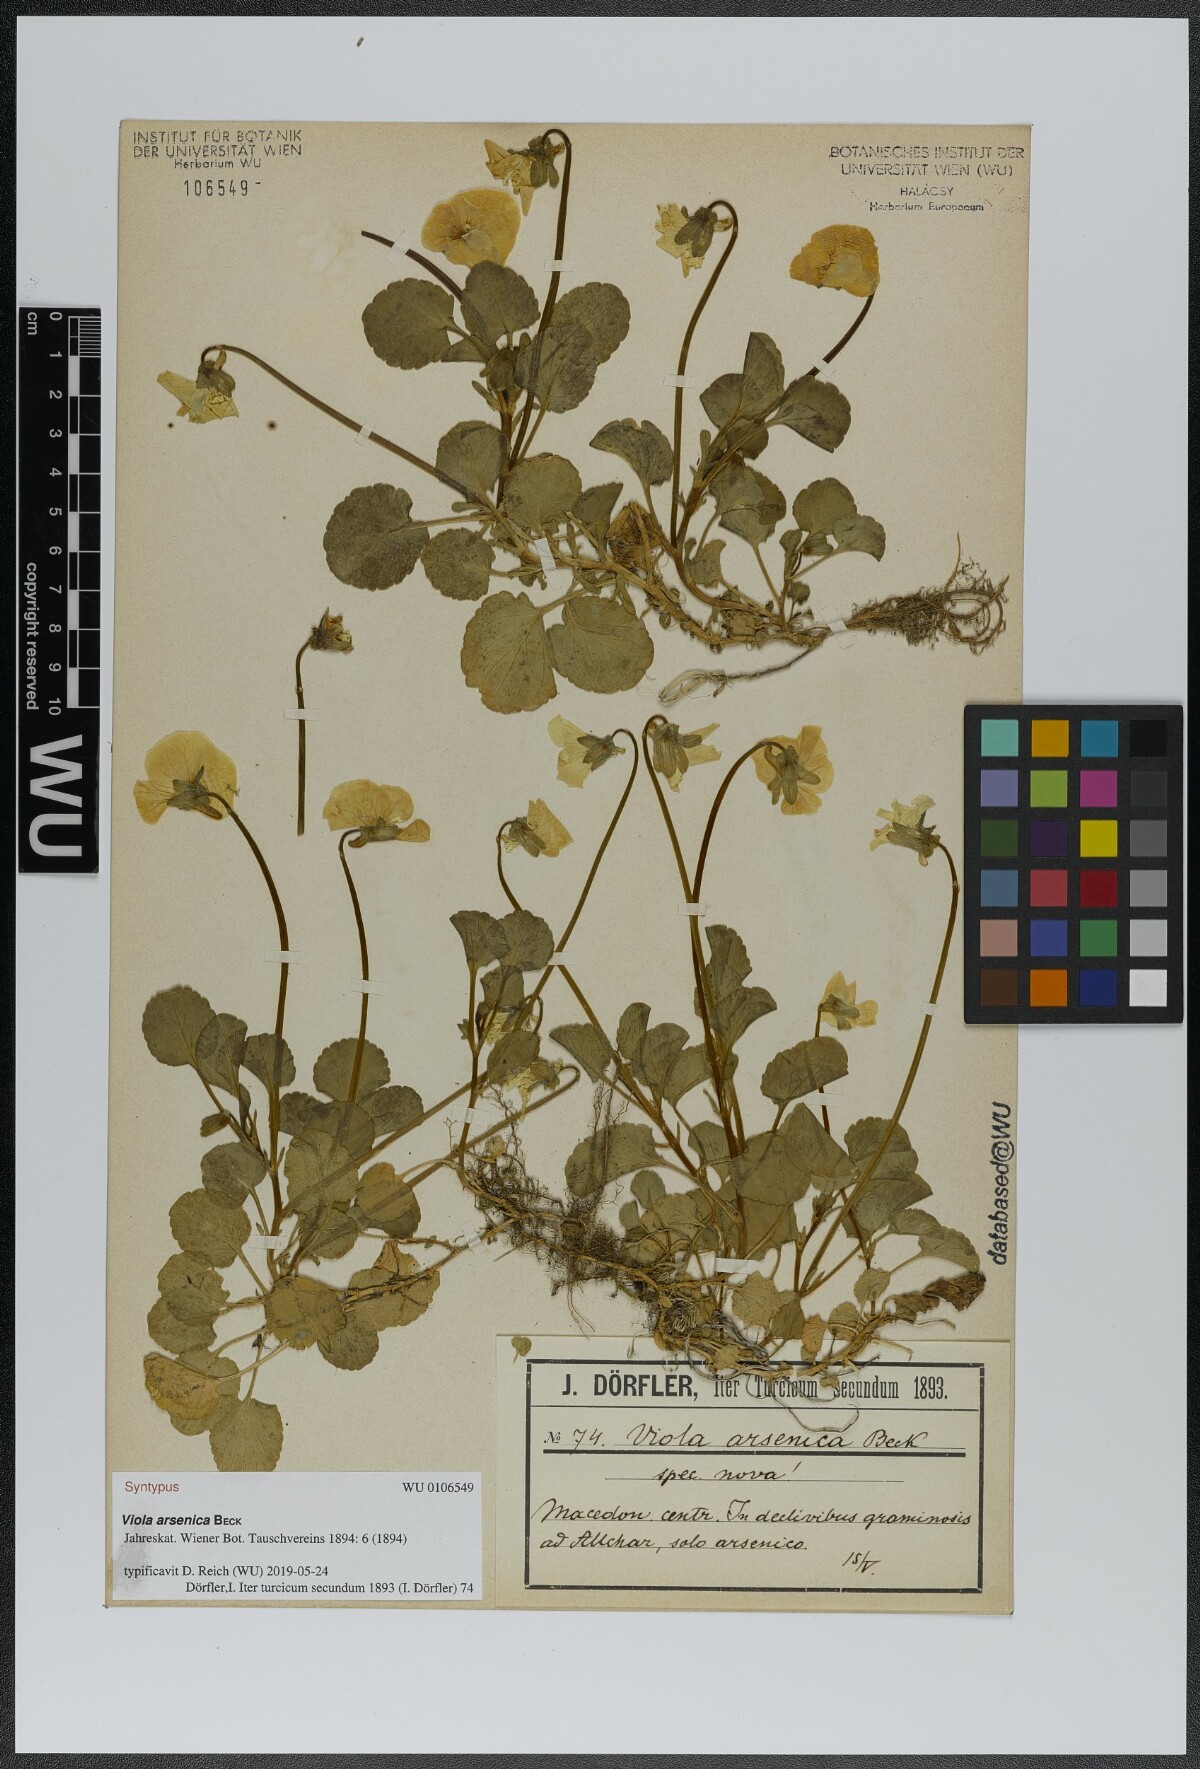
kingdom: Plantae
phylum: Tracheophyta
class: Magnoliopsida
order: Malpighiales
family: Violaceae
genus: Viola
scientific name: Viola arsenica
